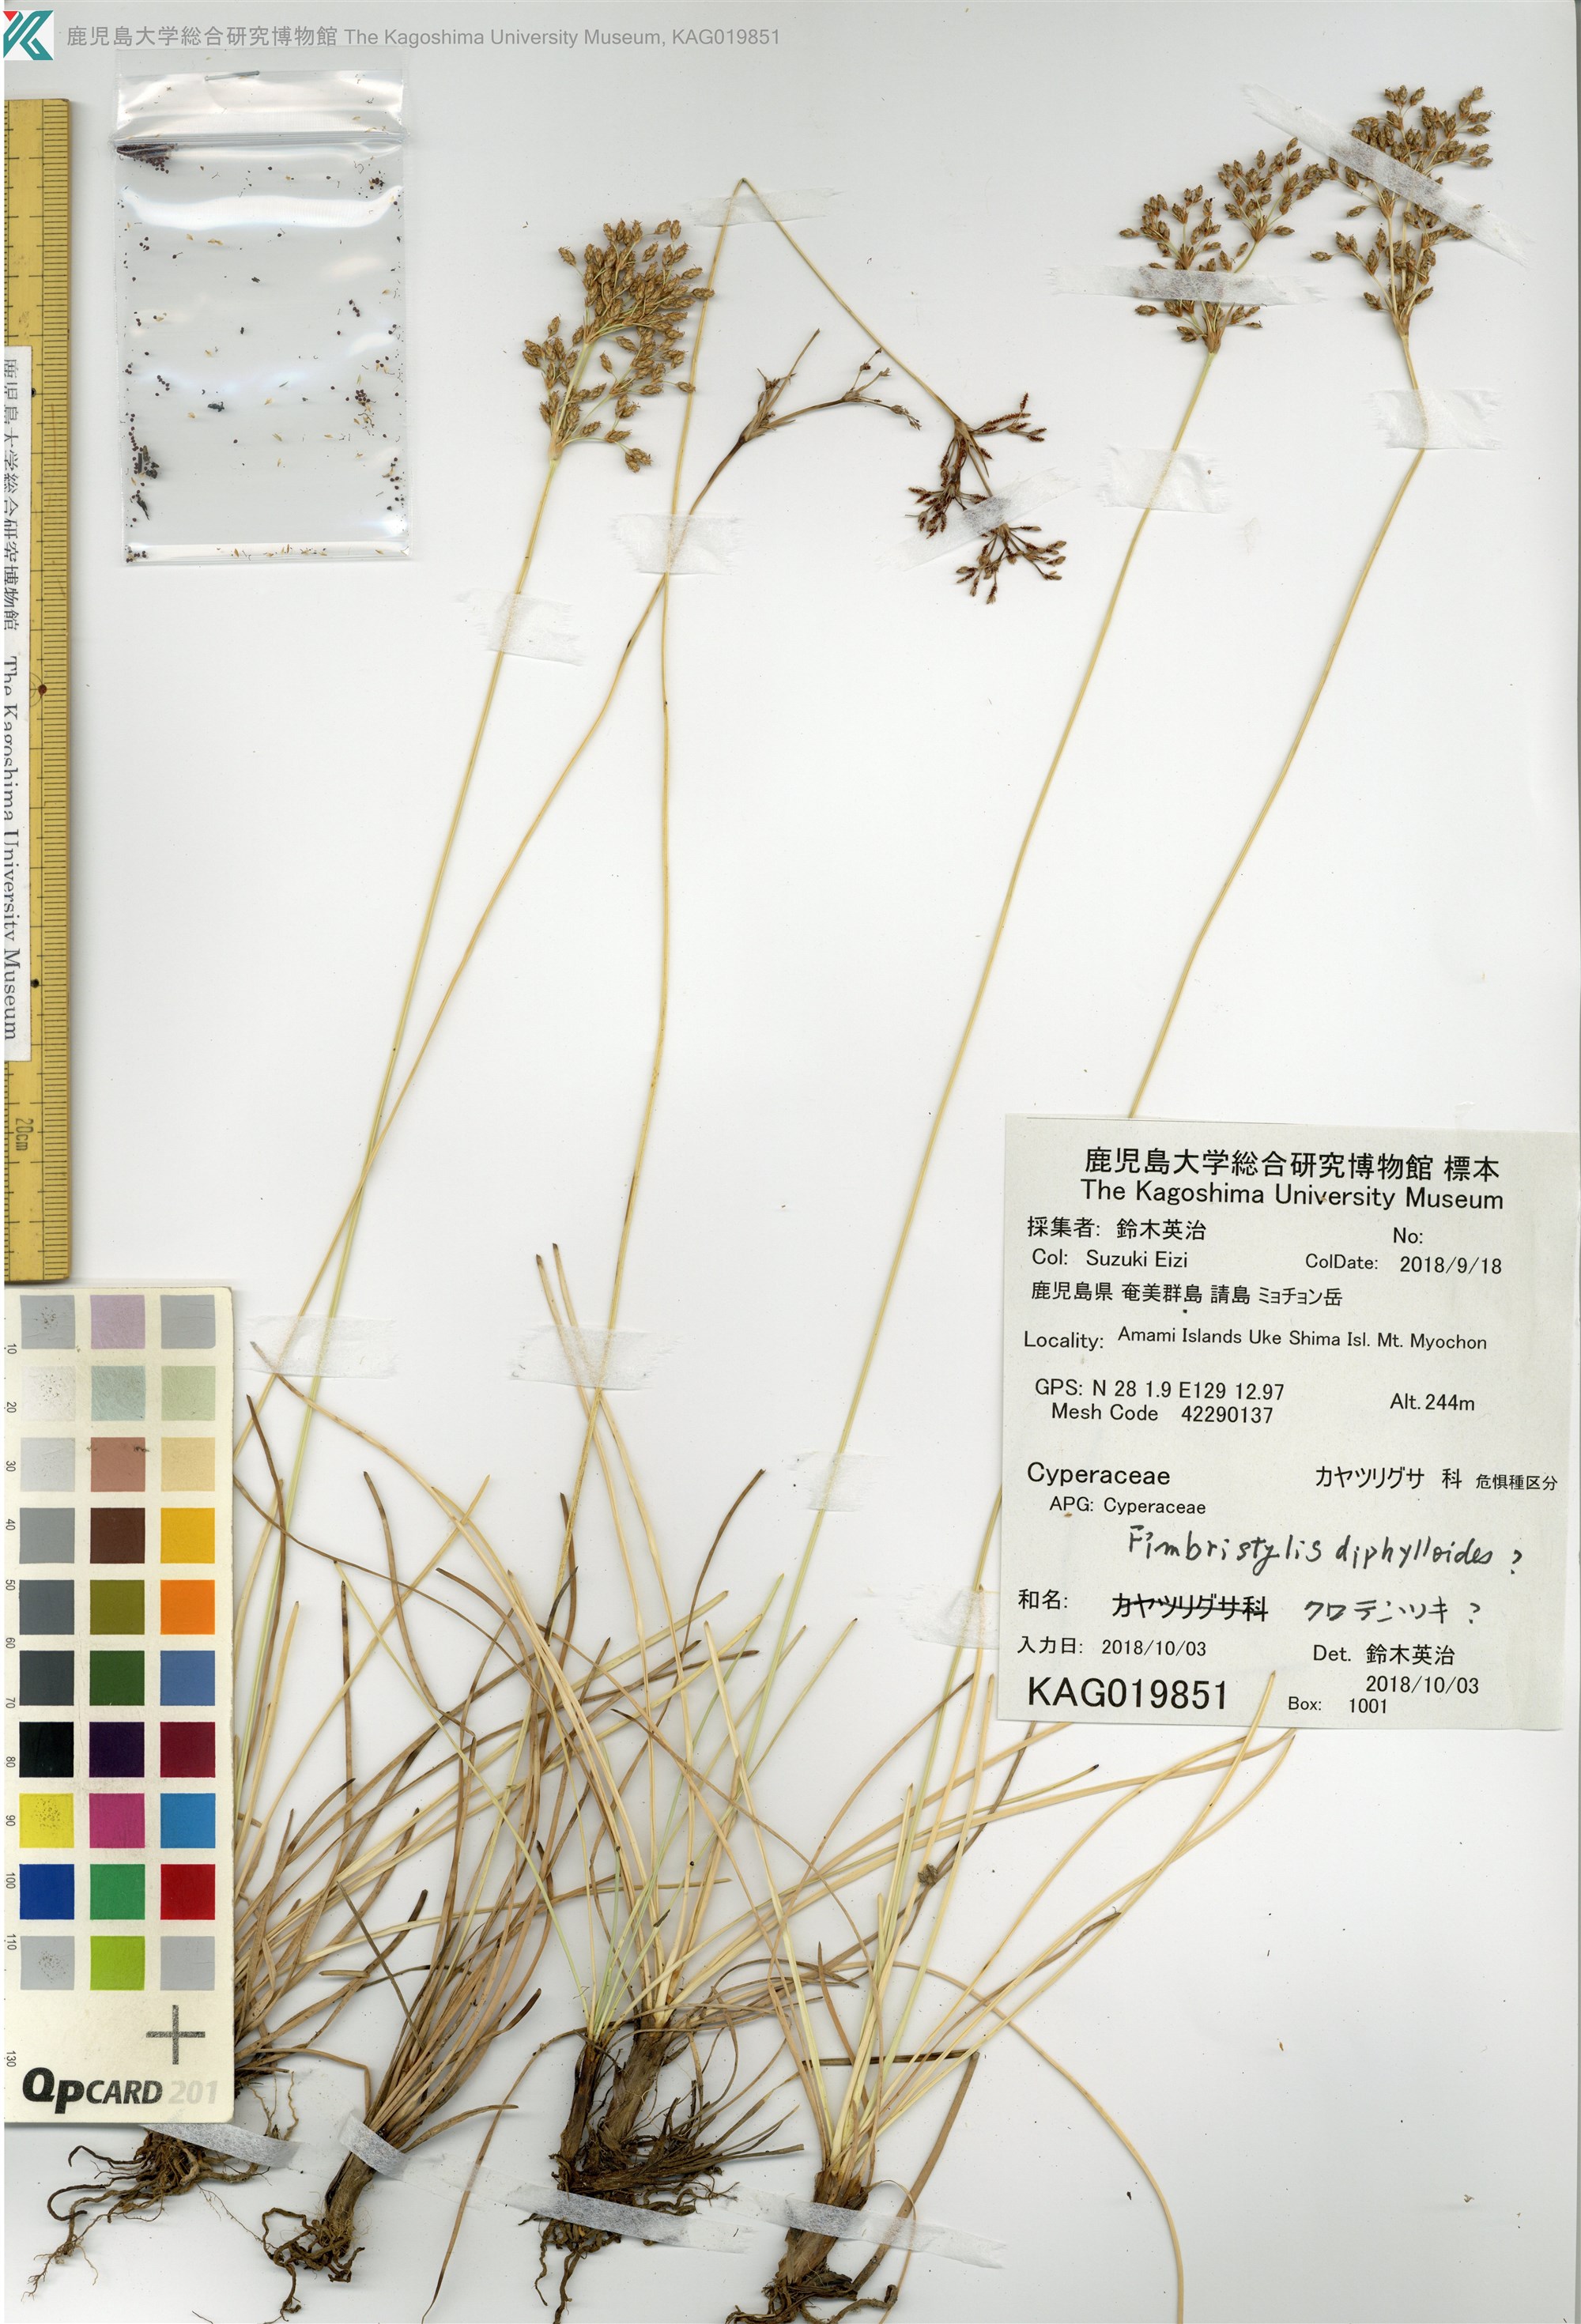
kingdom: Plantae
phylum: Tracheophyta
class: Liliopsida
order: Poales
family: Cyperaceae
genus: Fimbristylis
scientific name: Fimbristylis
